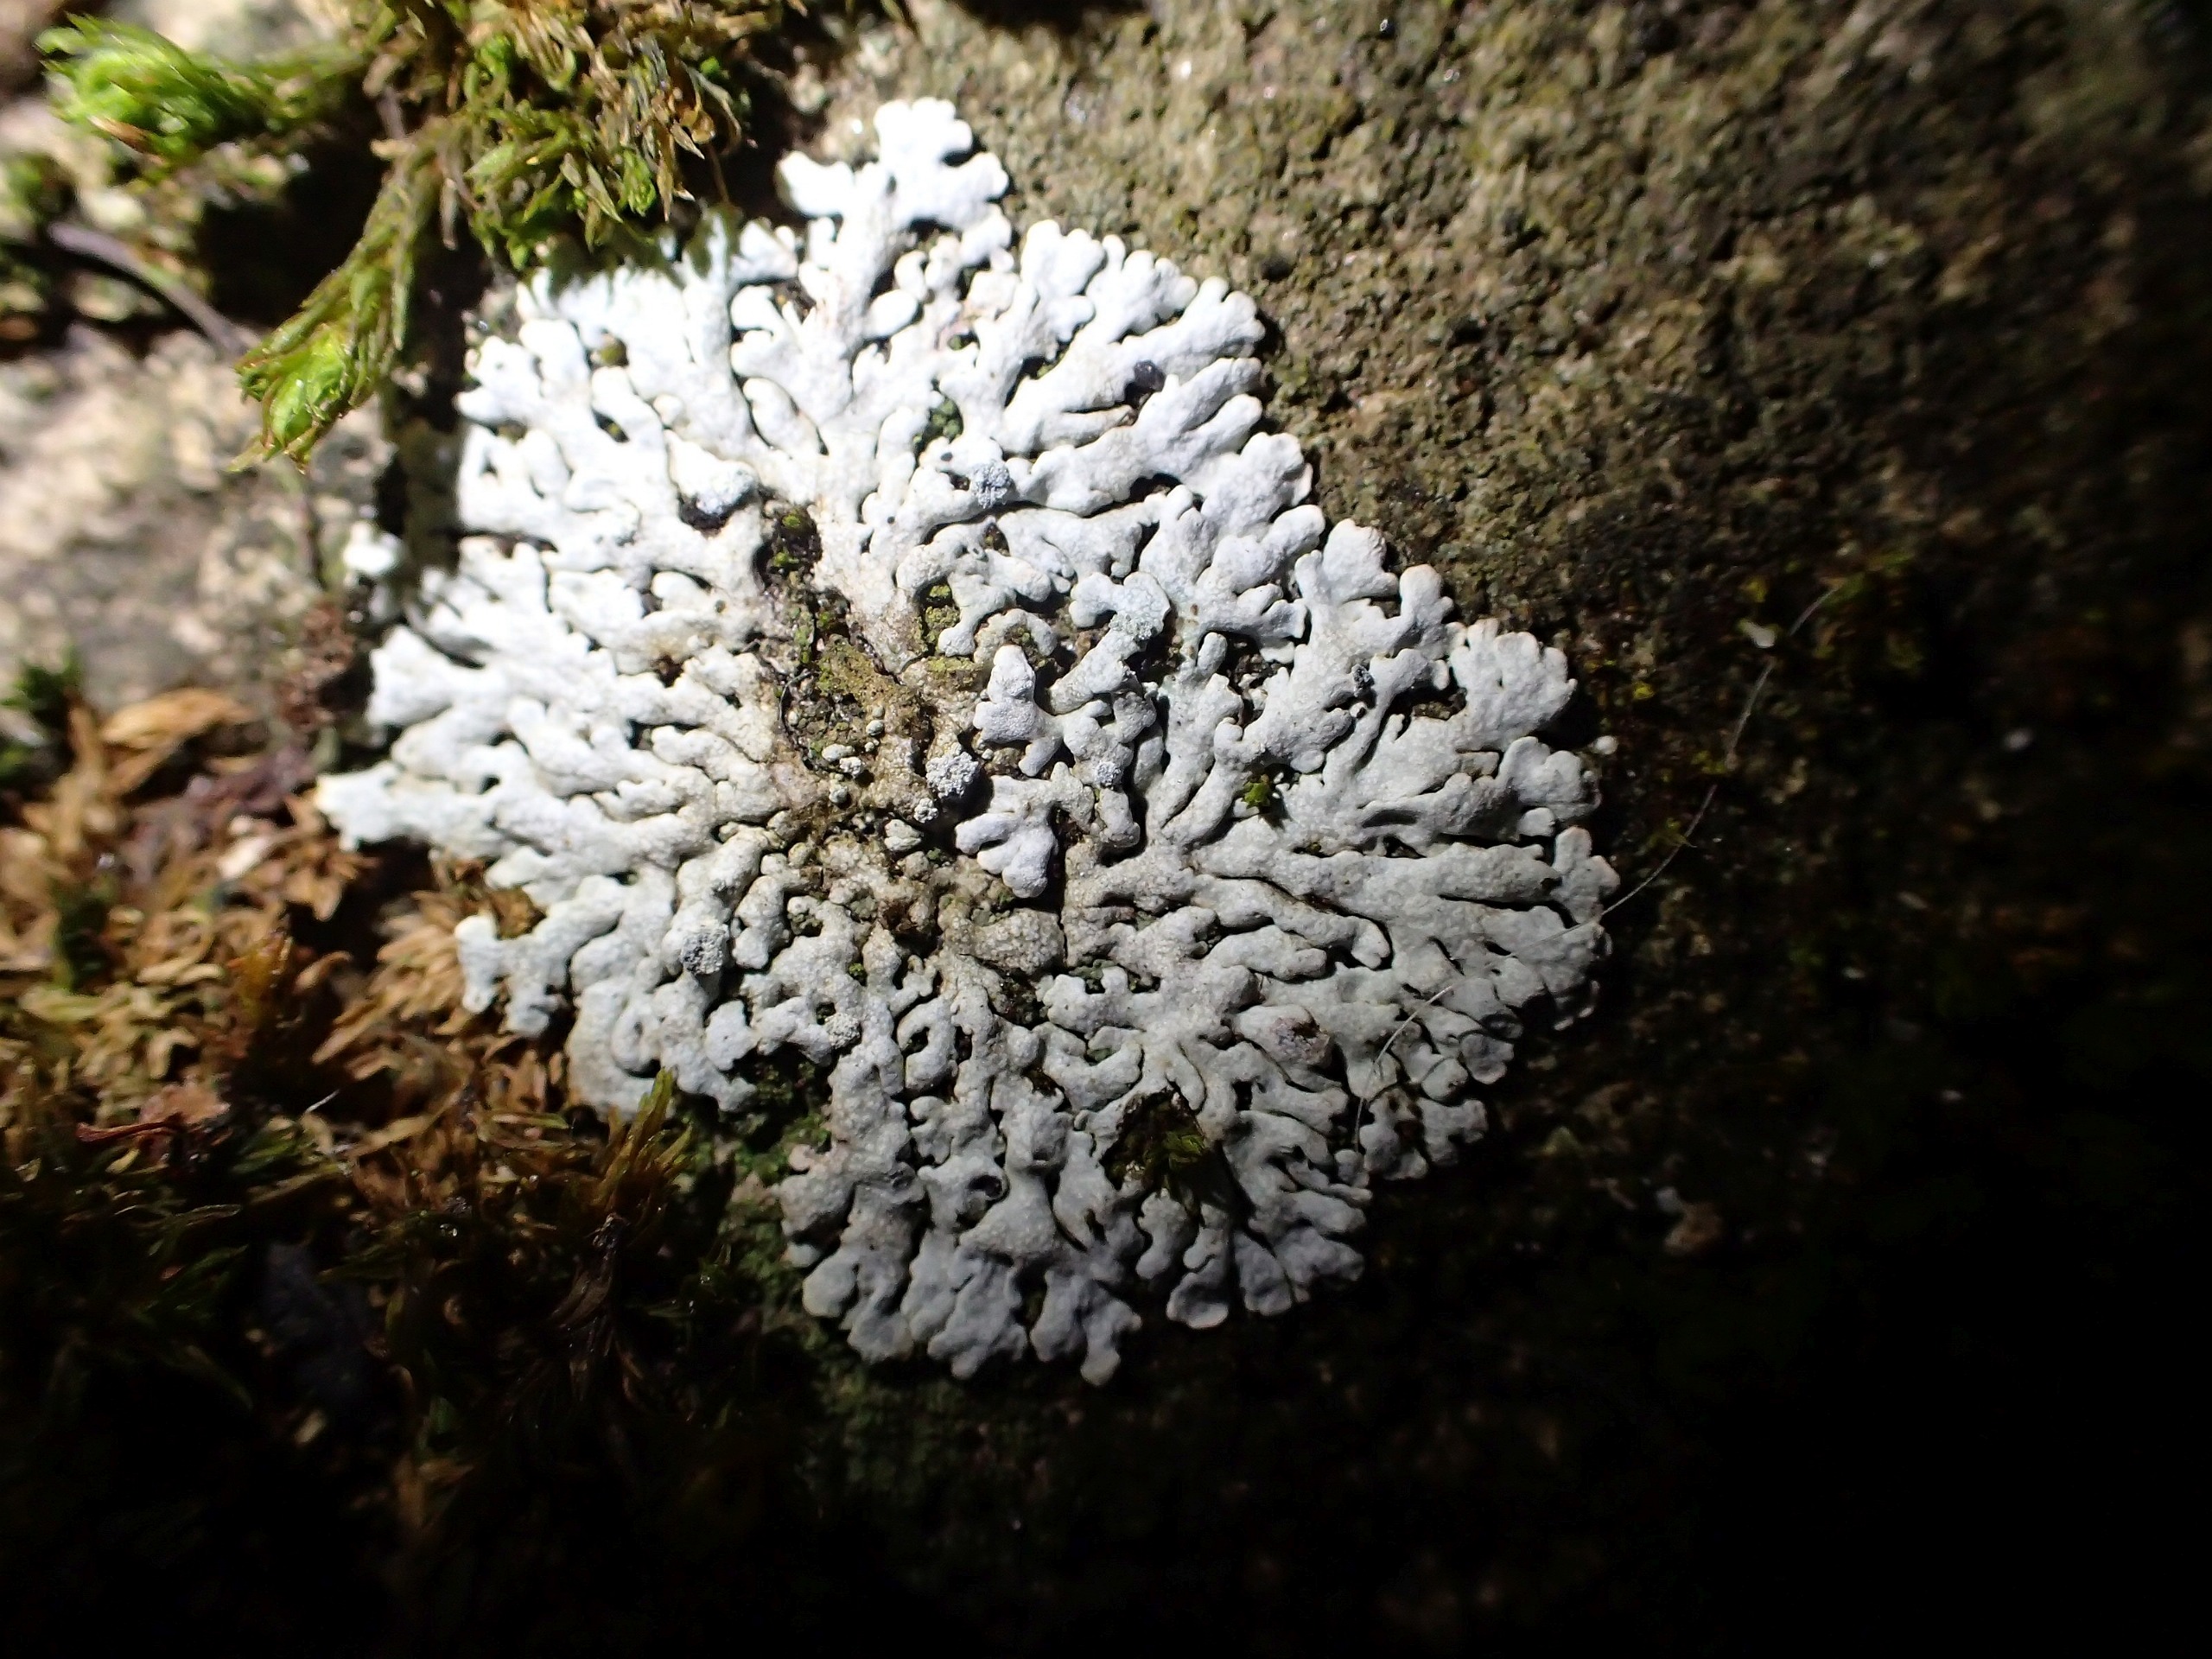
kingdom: Fungi
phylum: Ascomycota
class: Lecanoromycetes
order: Caliciales
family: Physciaceae
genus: Physcia
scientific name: Physcia caesia
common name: Blågrå rosetlav
